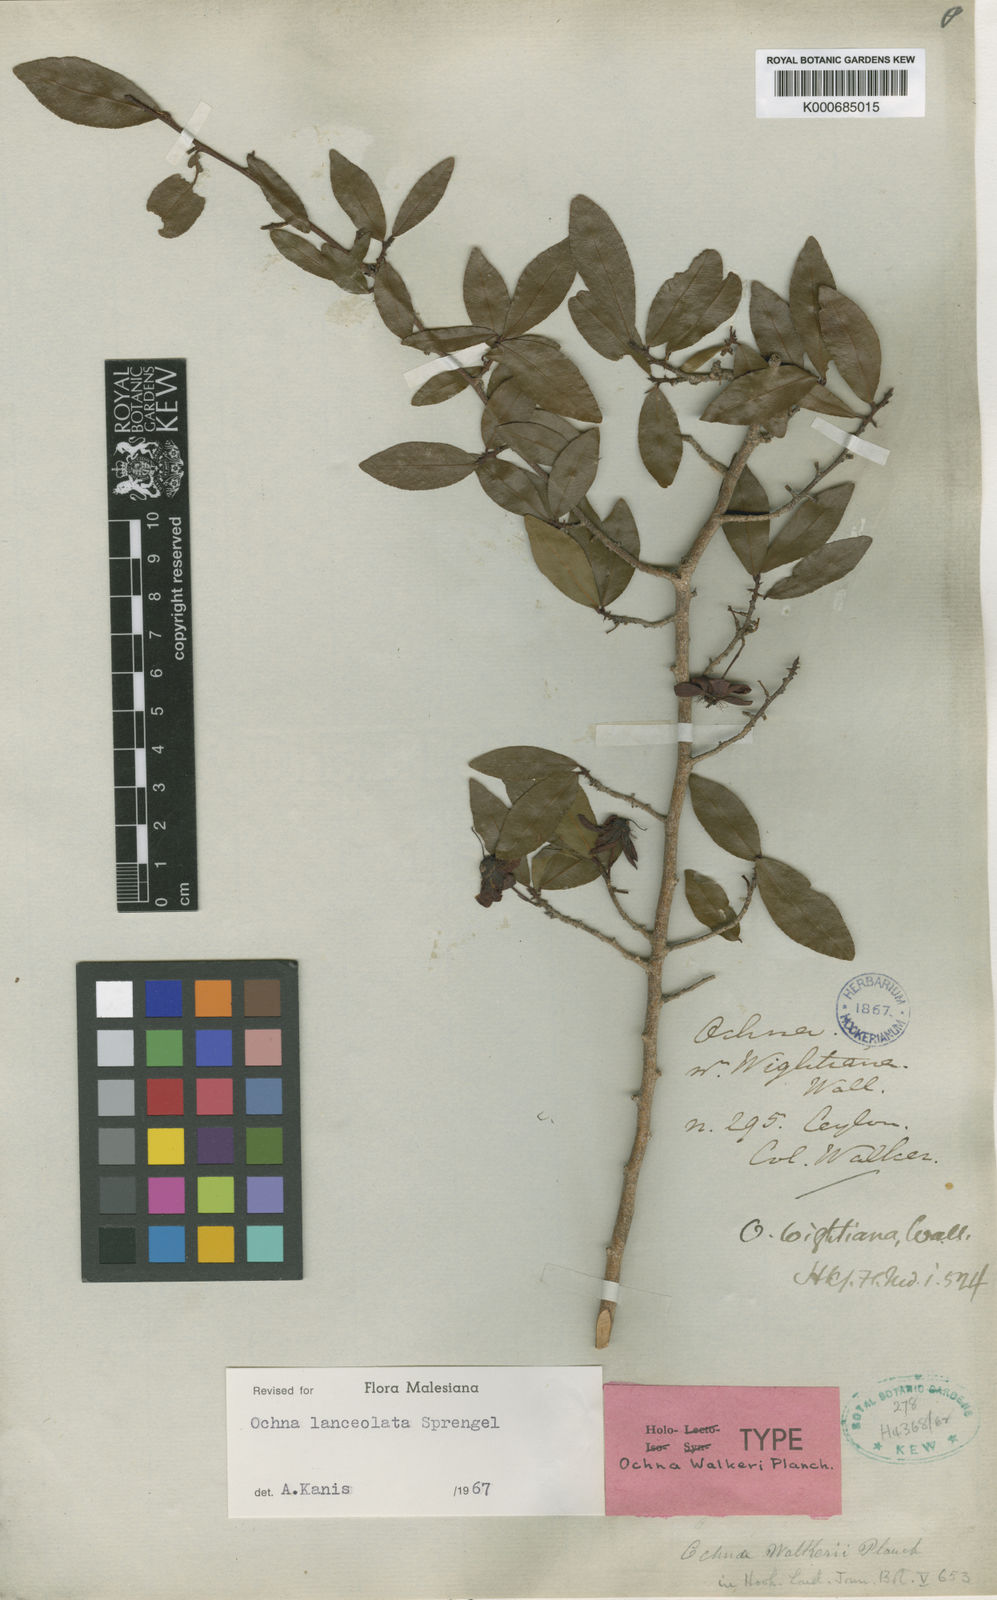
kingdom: Plantae
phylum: Tracheophyta
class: Magnoliopsida
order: Malpighiales
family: Ochnaceae
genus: Ochna
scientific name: Ochna lanceolata
